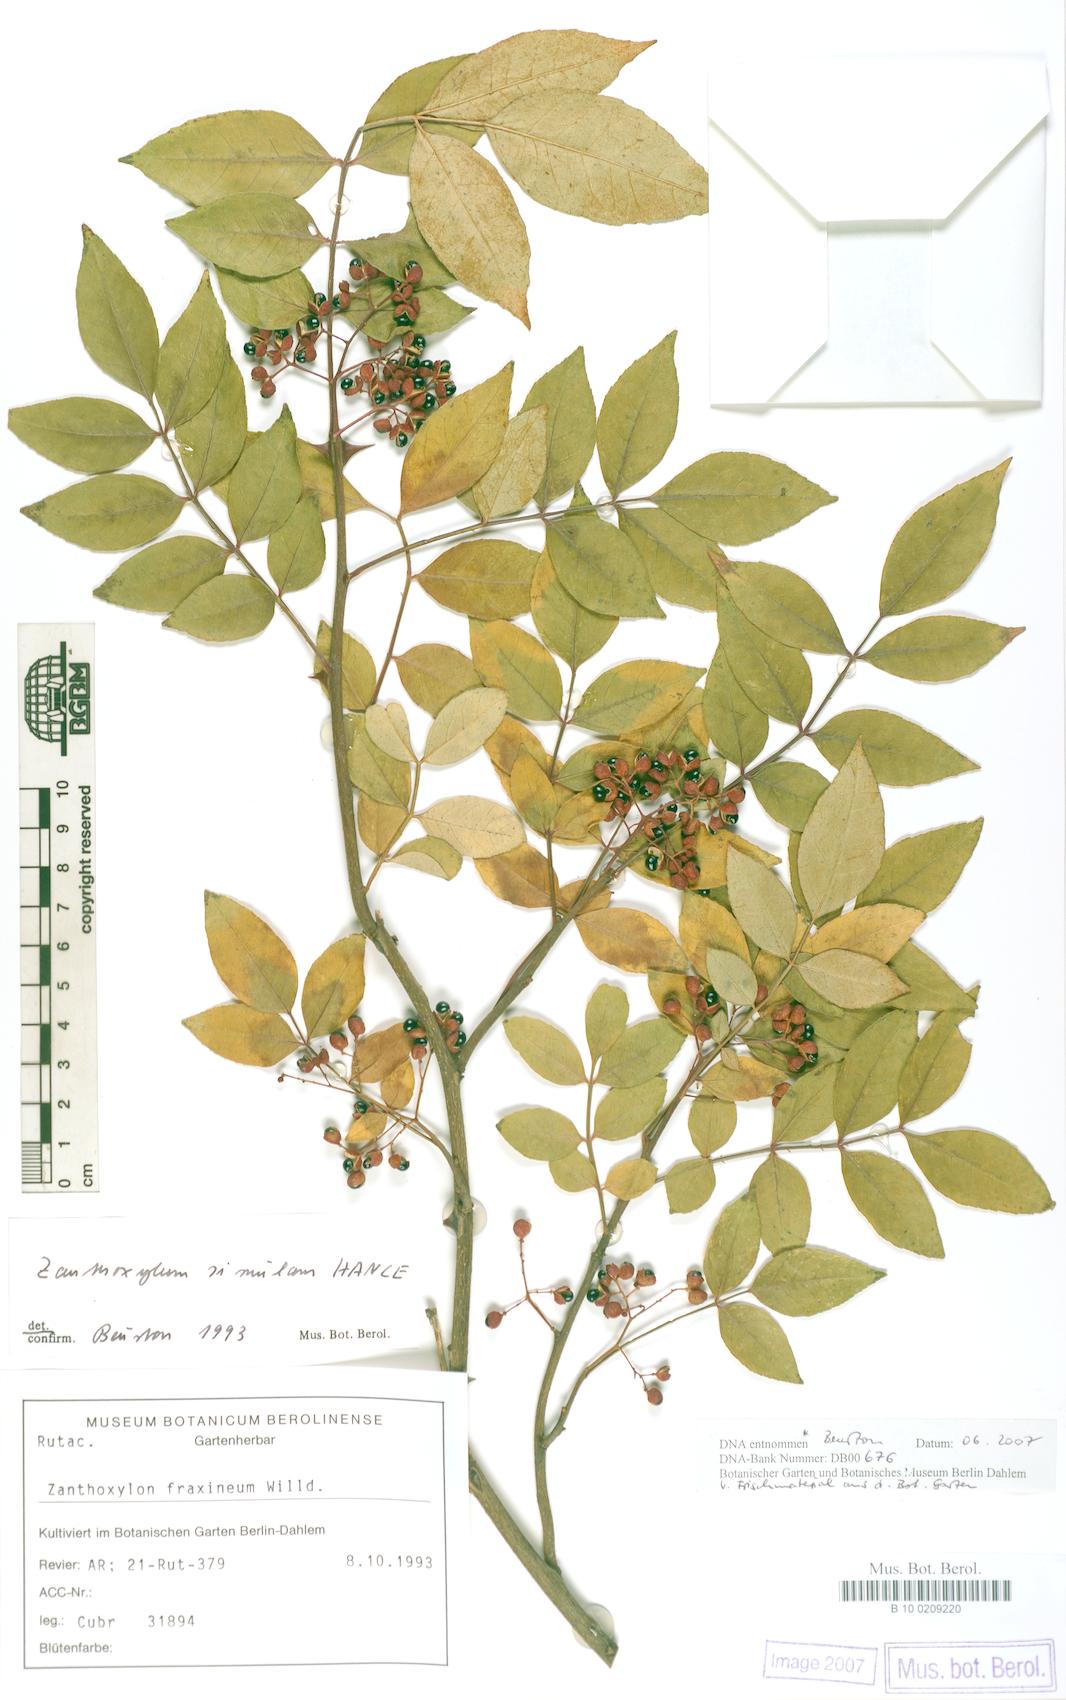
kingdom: Plantae
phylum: Tracheophyta
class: Magnoliopsida
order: Sapindales
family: Rutaceae
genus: Zanthoxylum
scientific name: Zanthoxylum simulans
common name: Chinese-pepper
